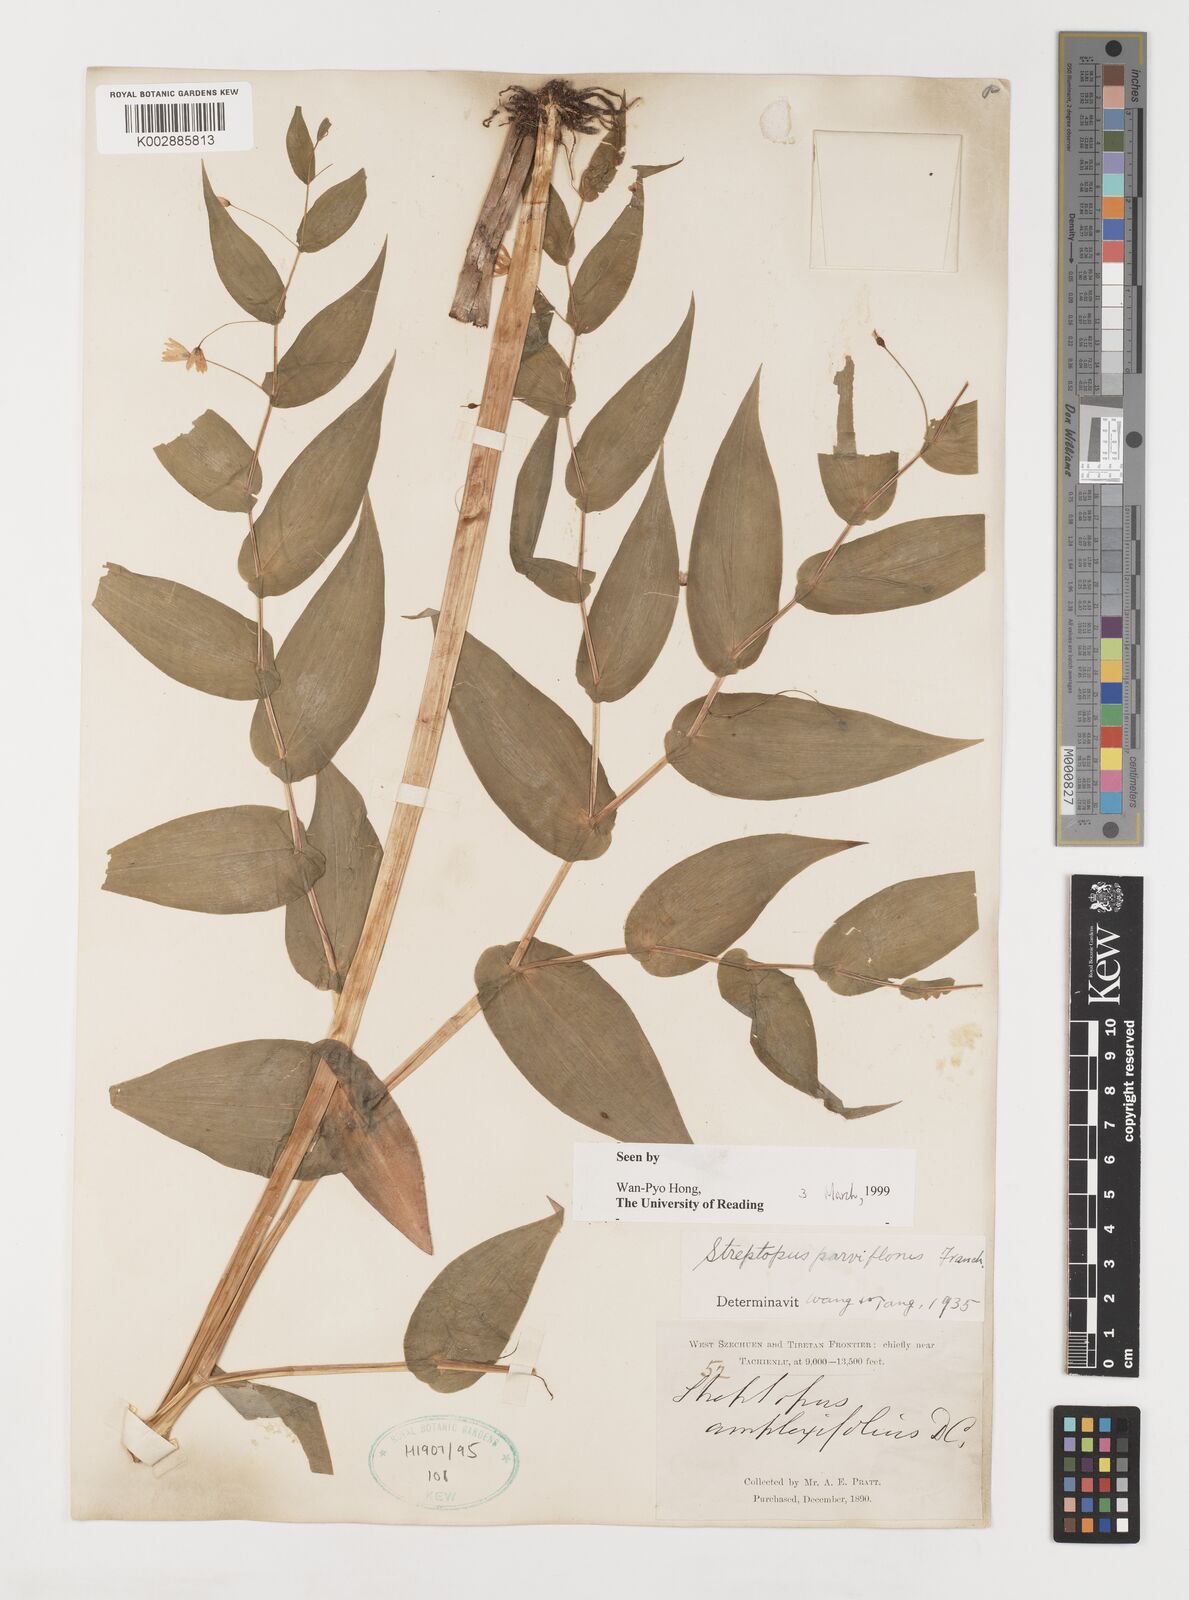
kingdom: Plantae
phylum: Tracheophyta
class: Liliopsida
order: Liliales
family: Liliaceae
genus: Streptopus
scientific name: Streptopus parviflorus
